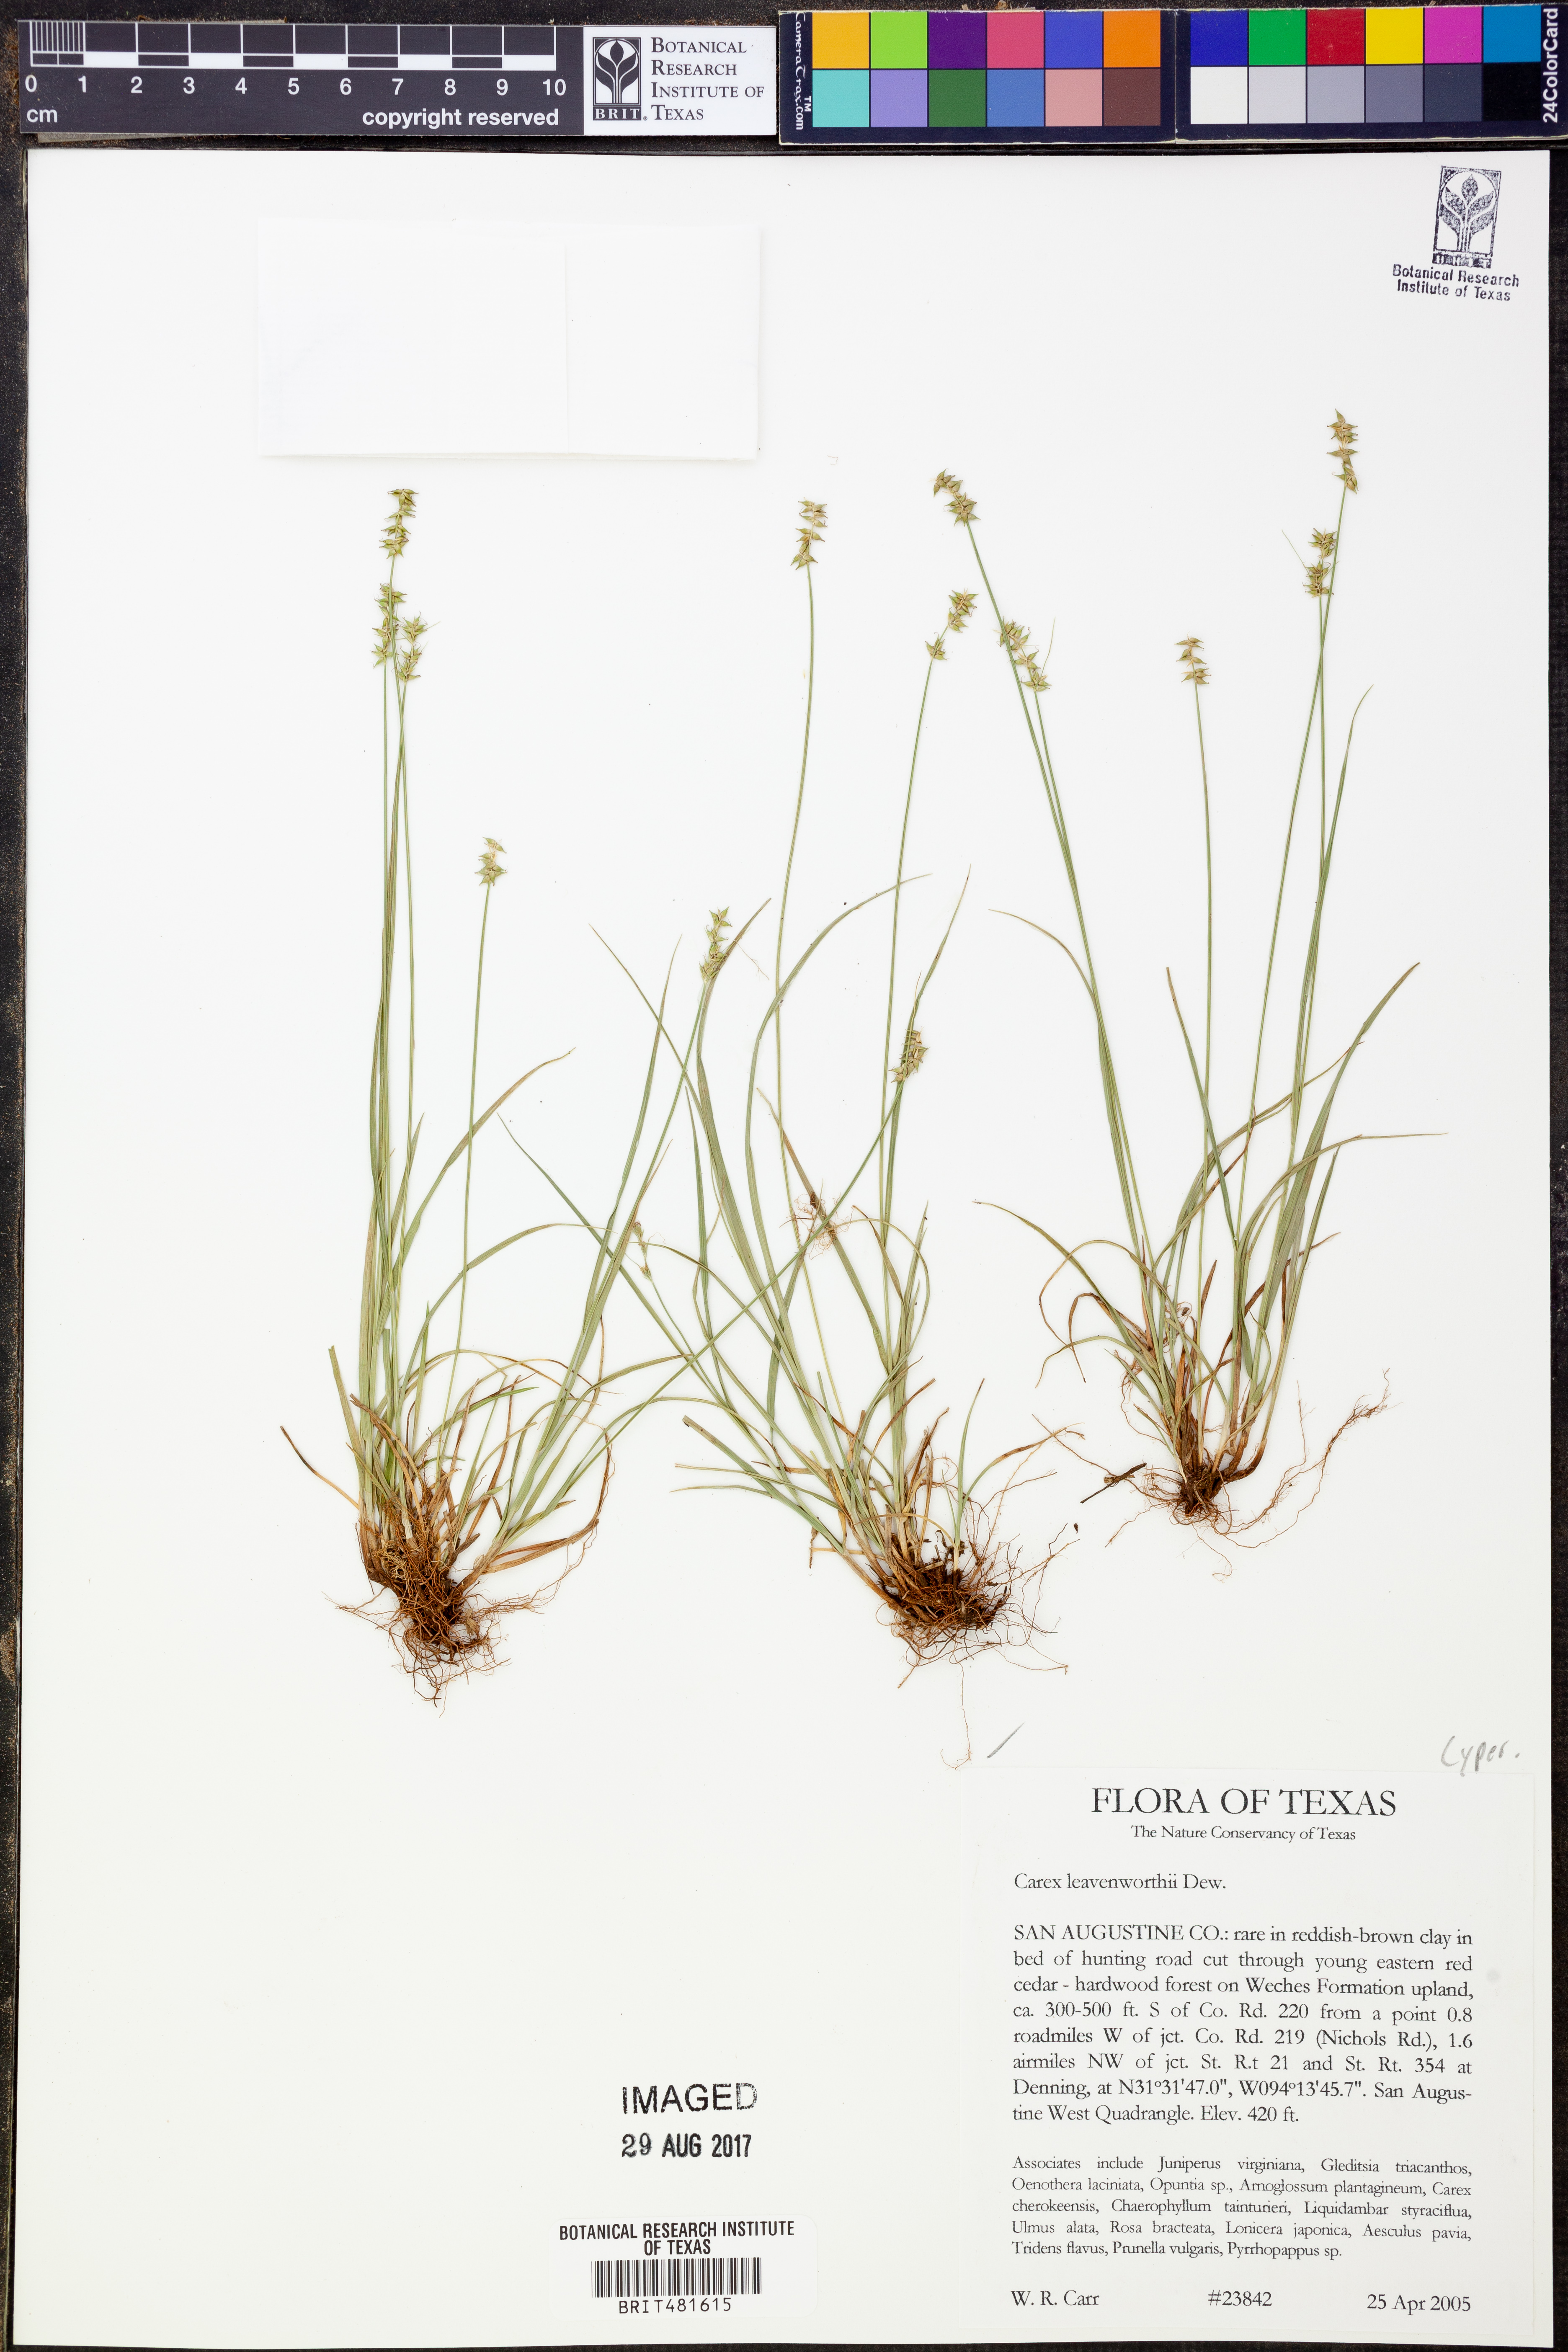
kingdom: Plantae
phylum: Tracheophyta
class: Liliopsida
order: Poales
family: Cyperaceae
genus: Carex
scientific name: Carex leavenworthii
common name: Leavenworth's bracted sedge
